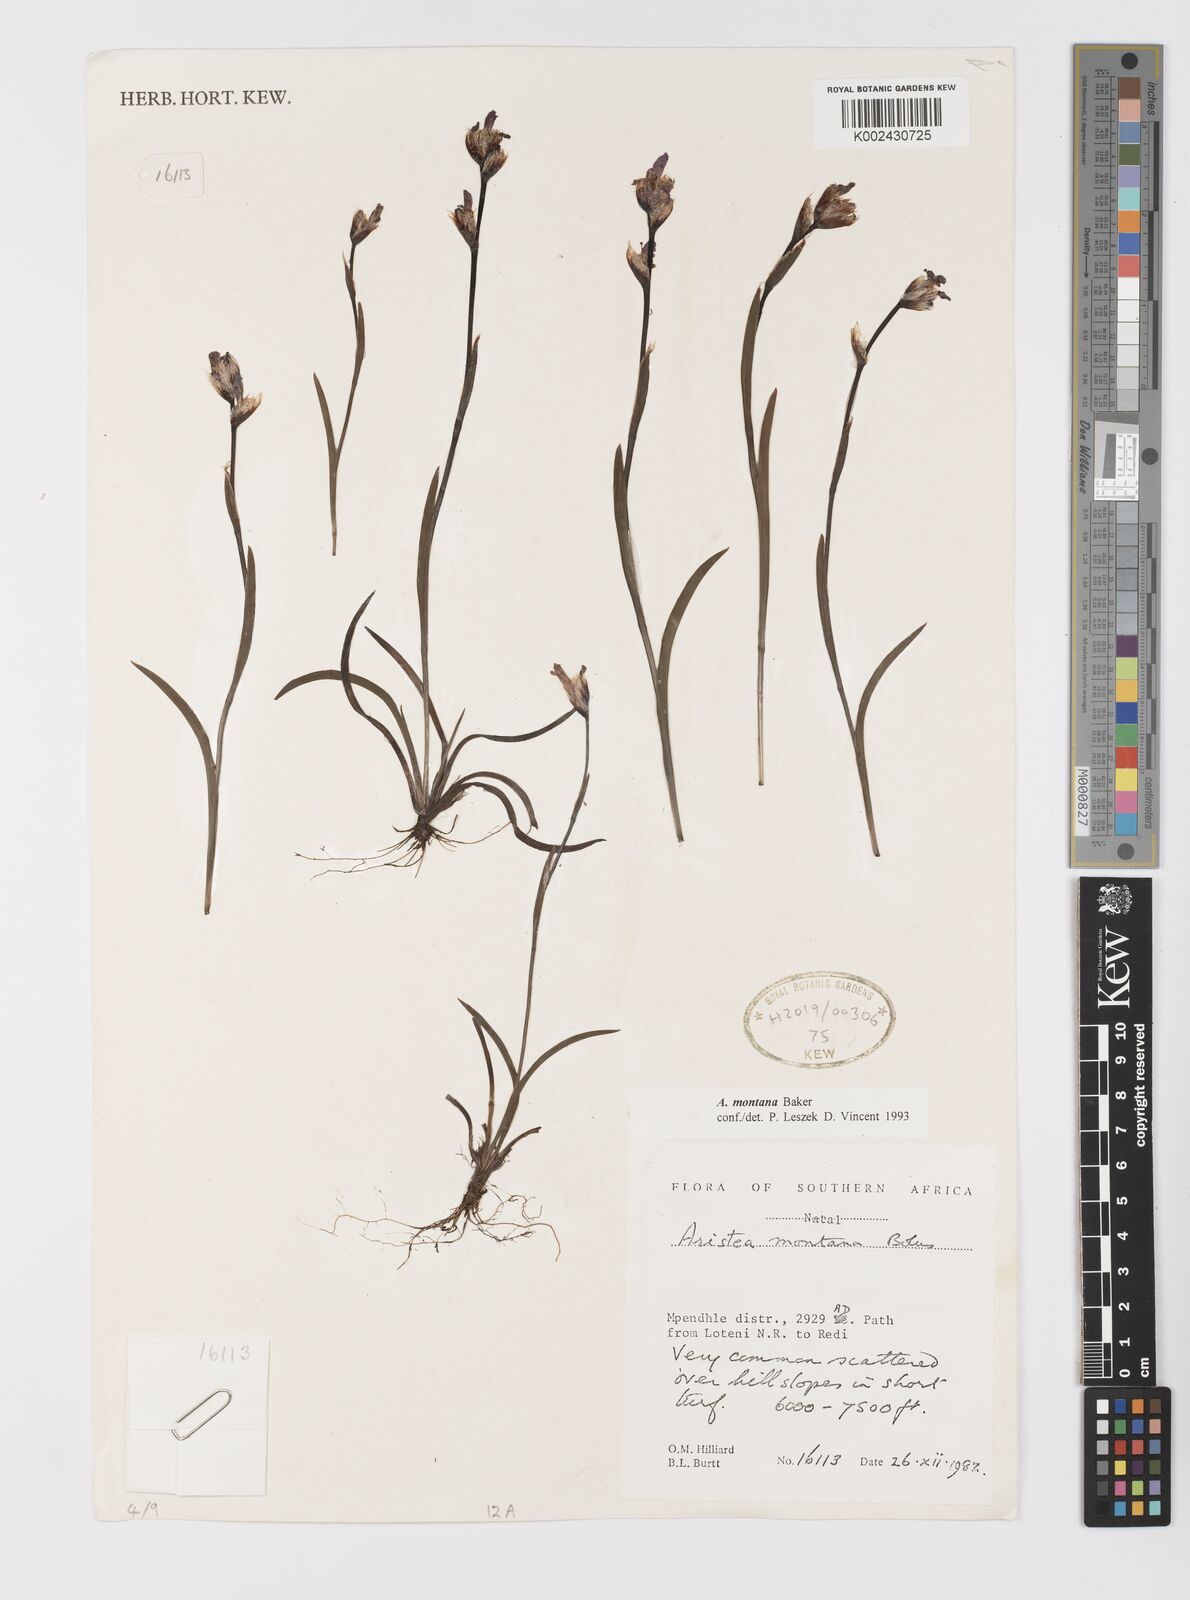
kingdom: Plantae
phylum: Tracheophyta
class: Liliopsida
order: Asparagales
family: Iridaceae
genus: Aristea
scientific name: Aristea montana
